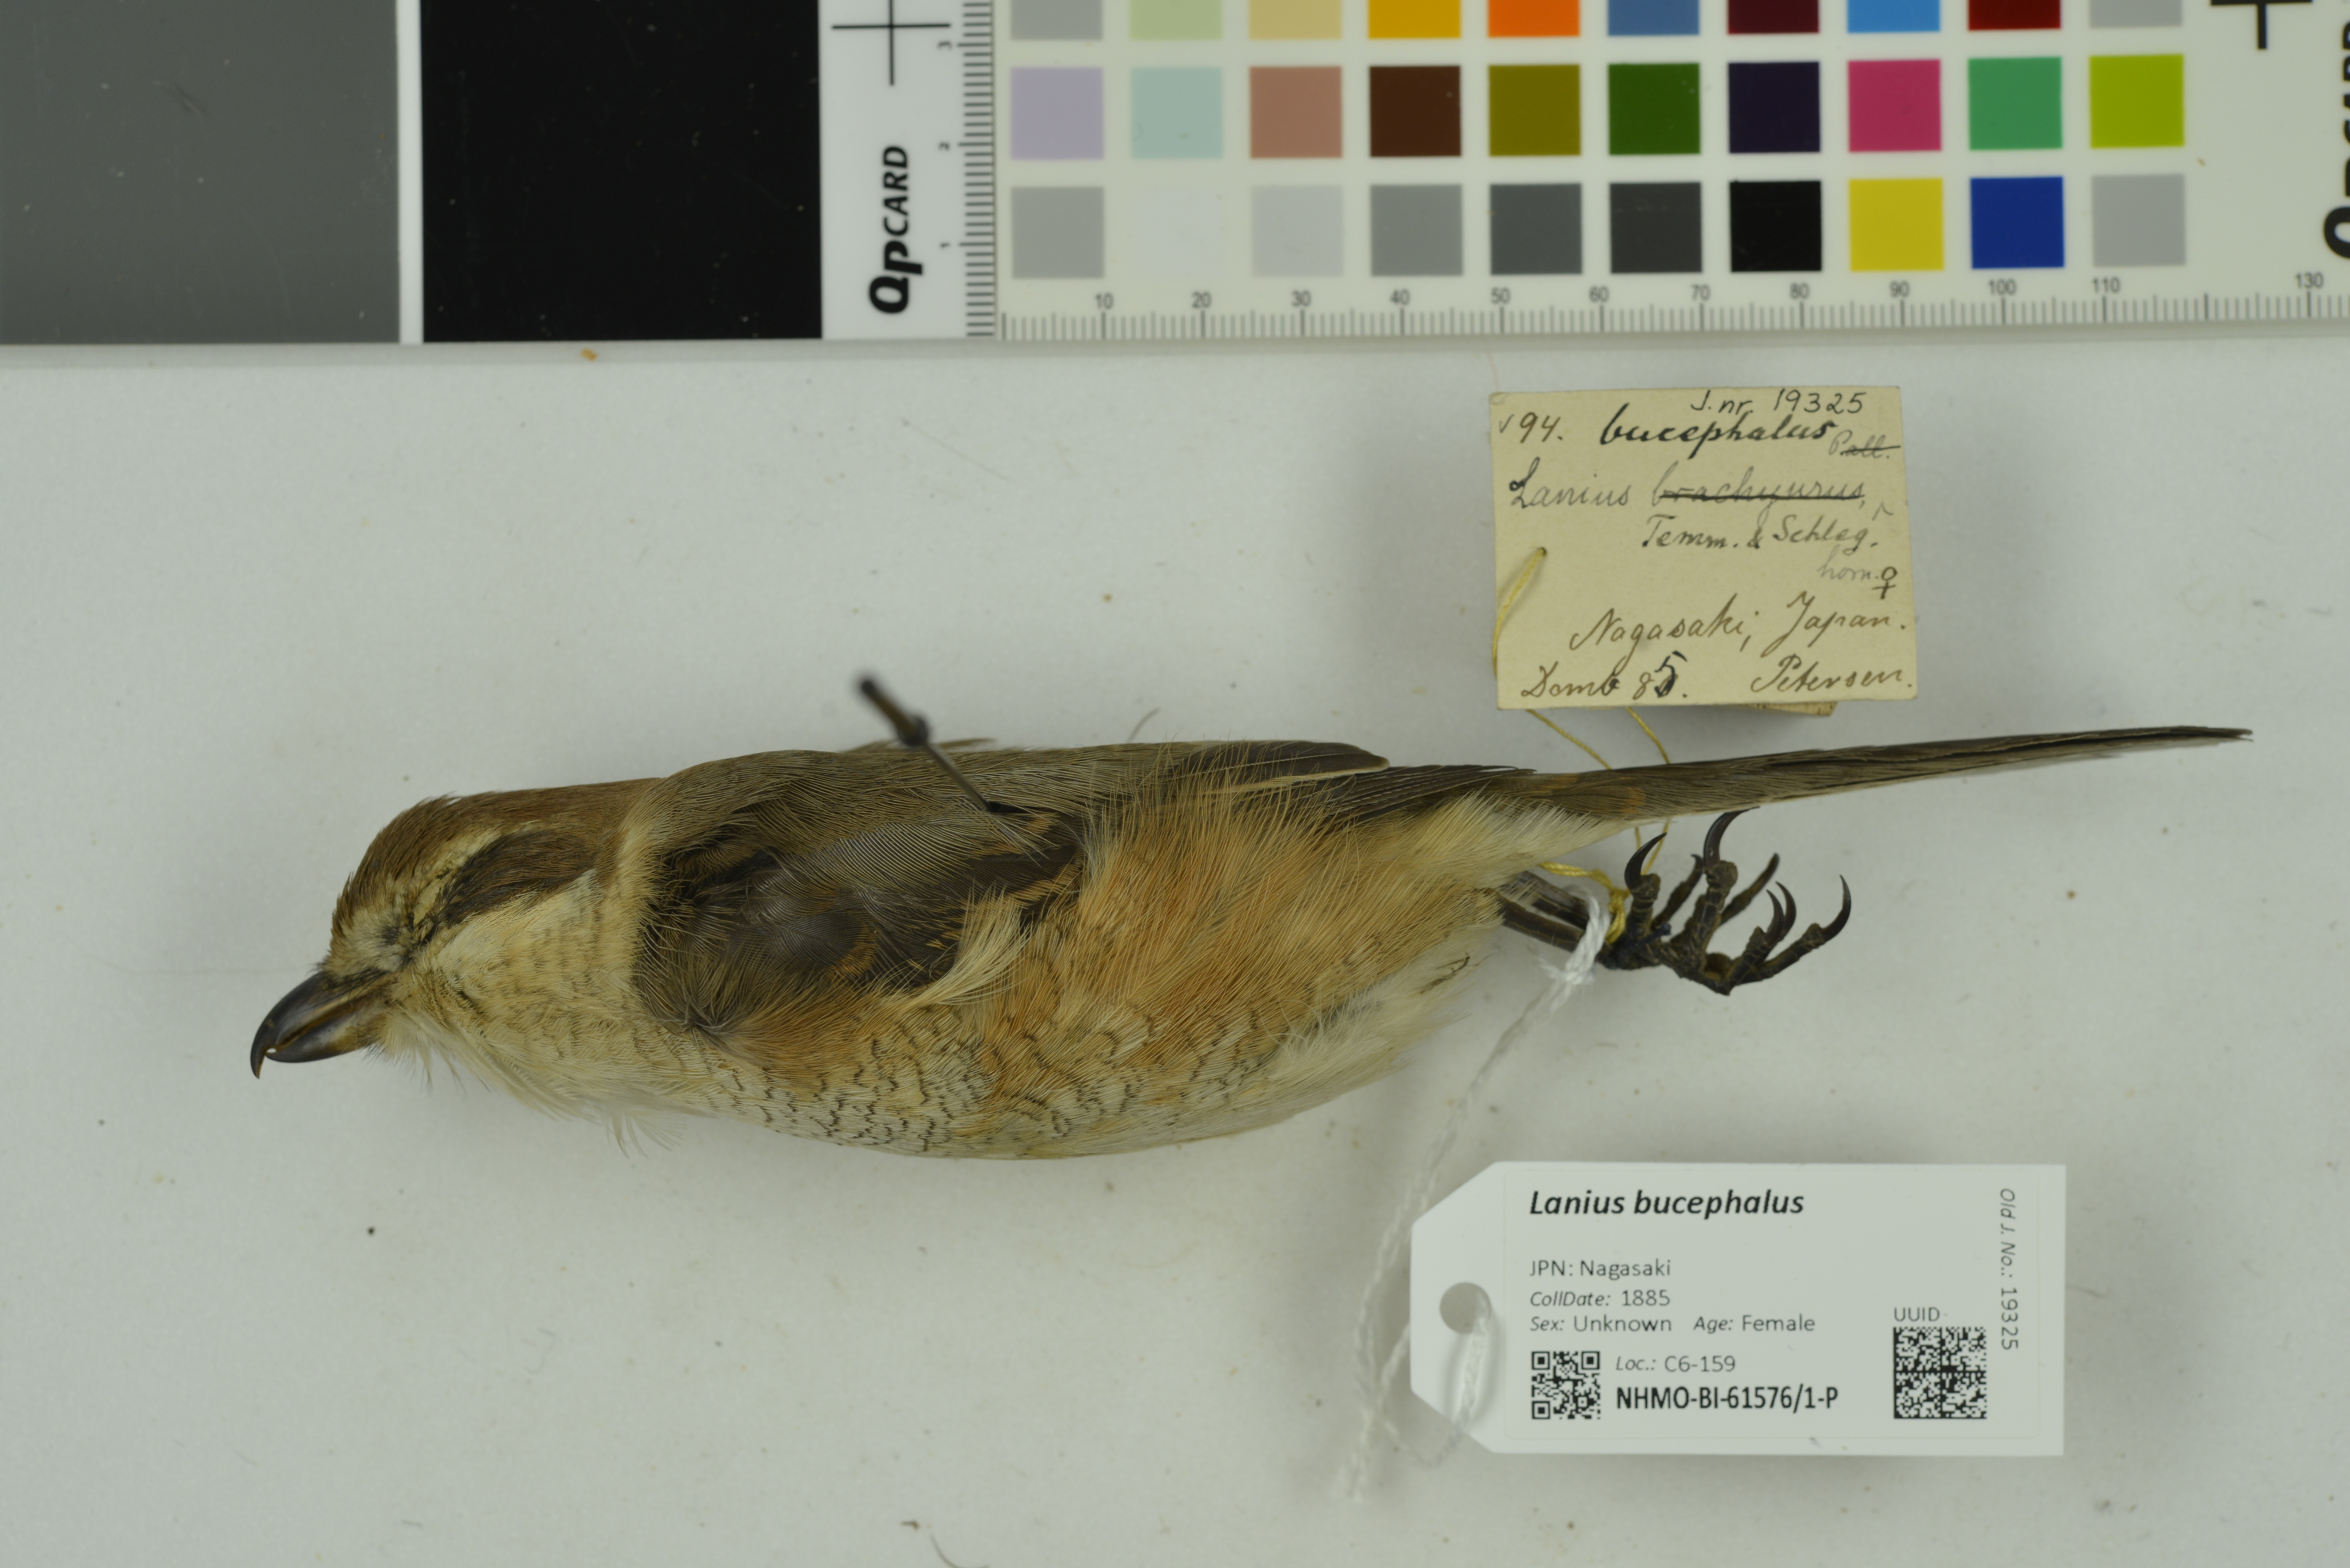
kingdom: Animalia
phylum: Chordata
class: Aves
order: Passeriformes
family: Laniidae
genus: Lanius
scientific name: Lanius bucephalus
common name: Bull-headed shrike
